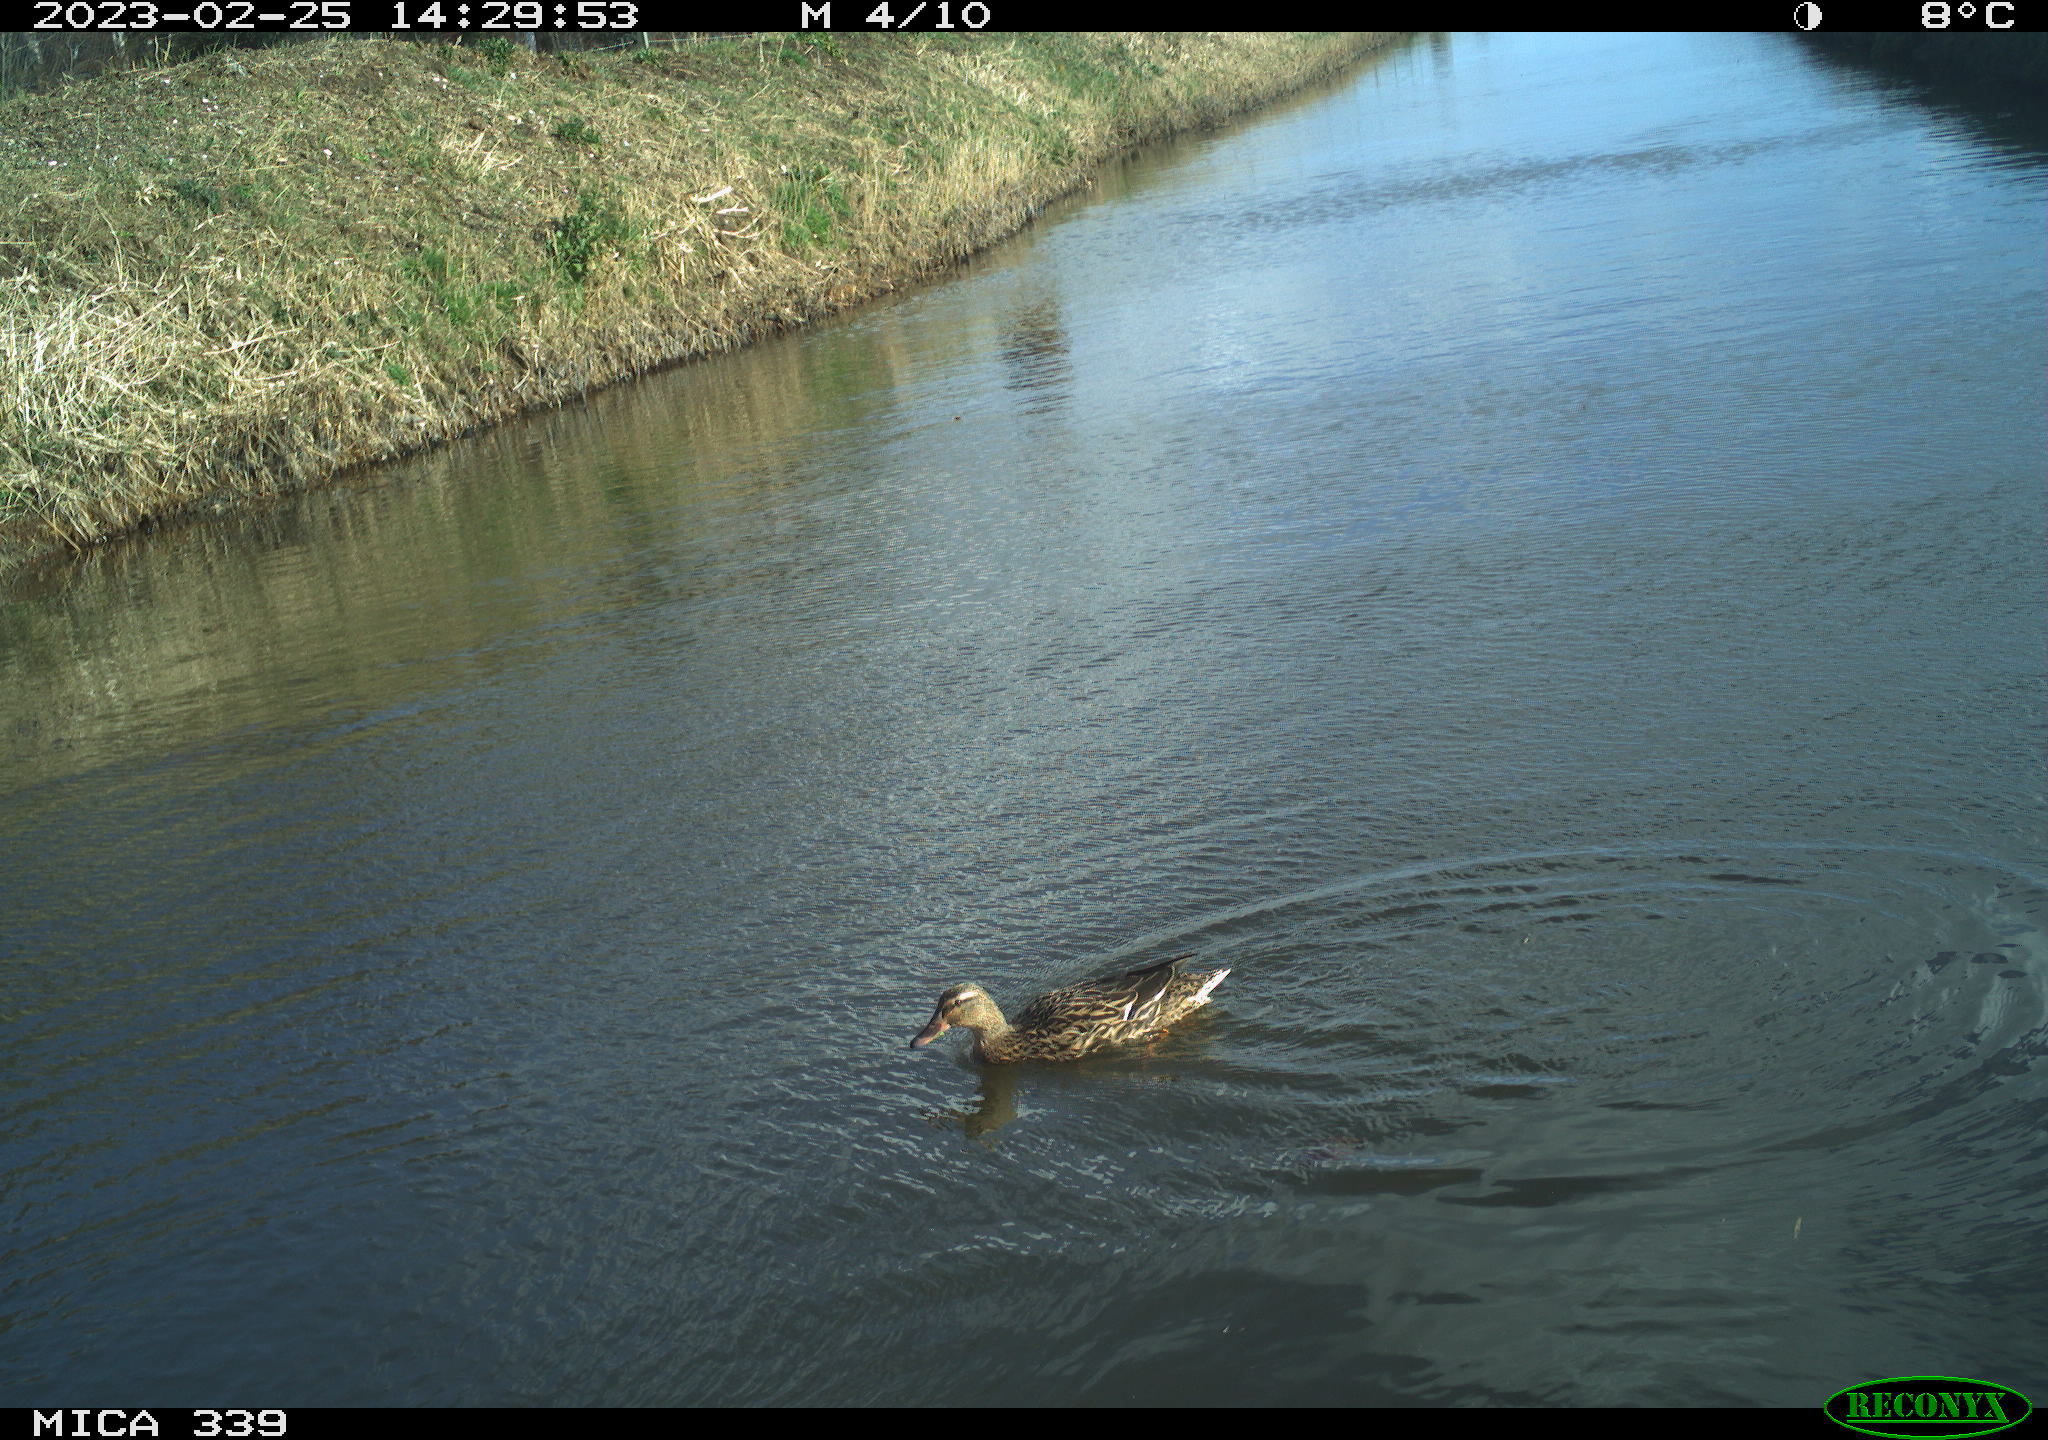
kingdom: Animalia
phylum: Chordata
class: Aves
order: Anseriformes
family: Anatidae
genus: Anas
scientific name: Anas
